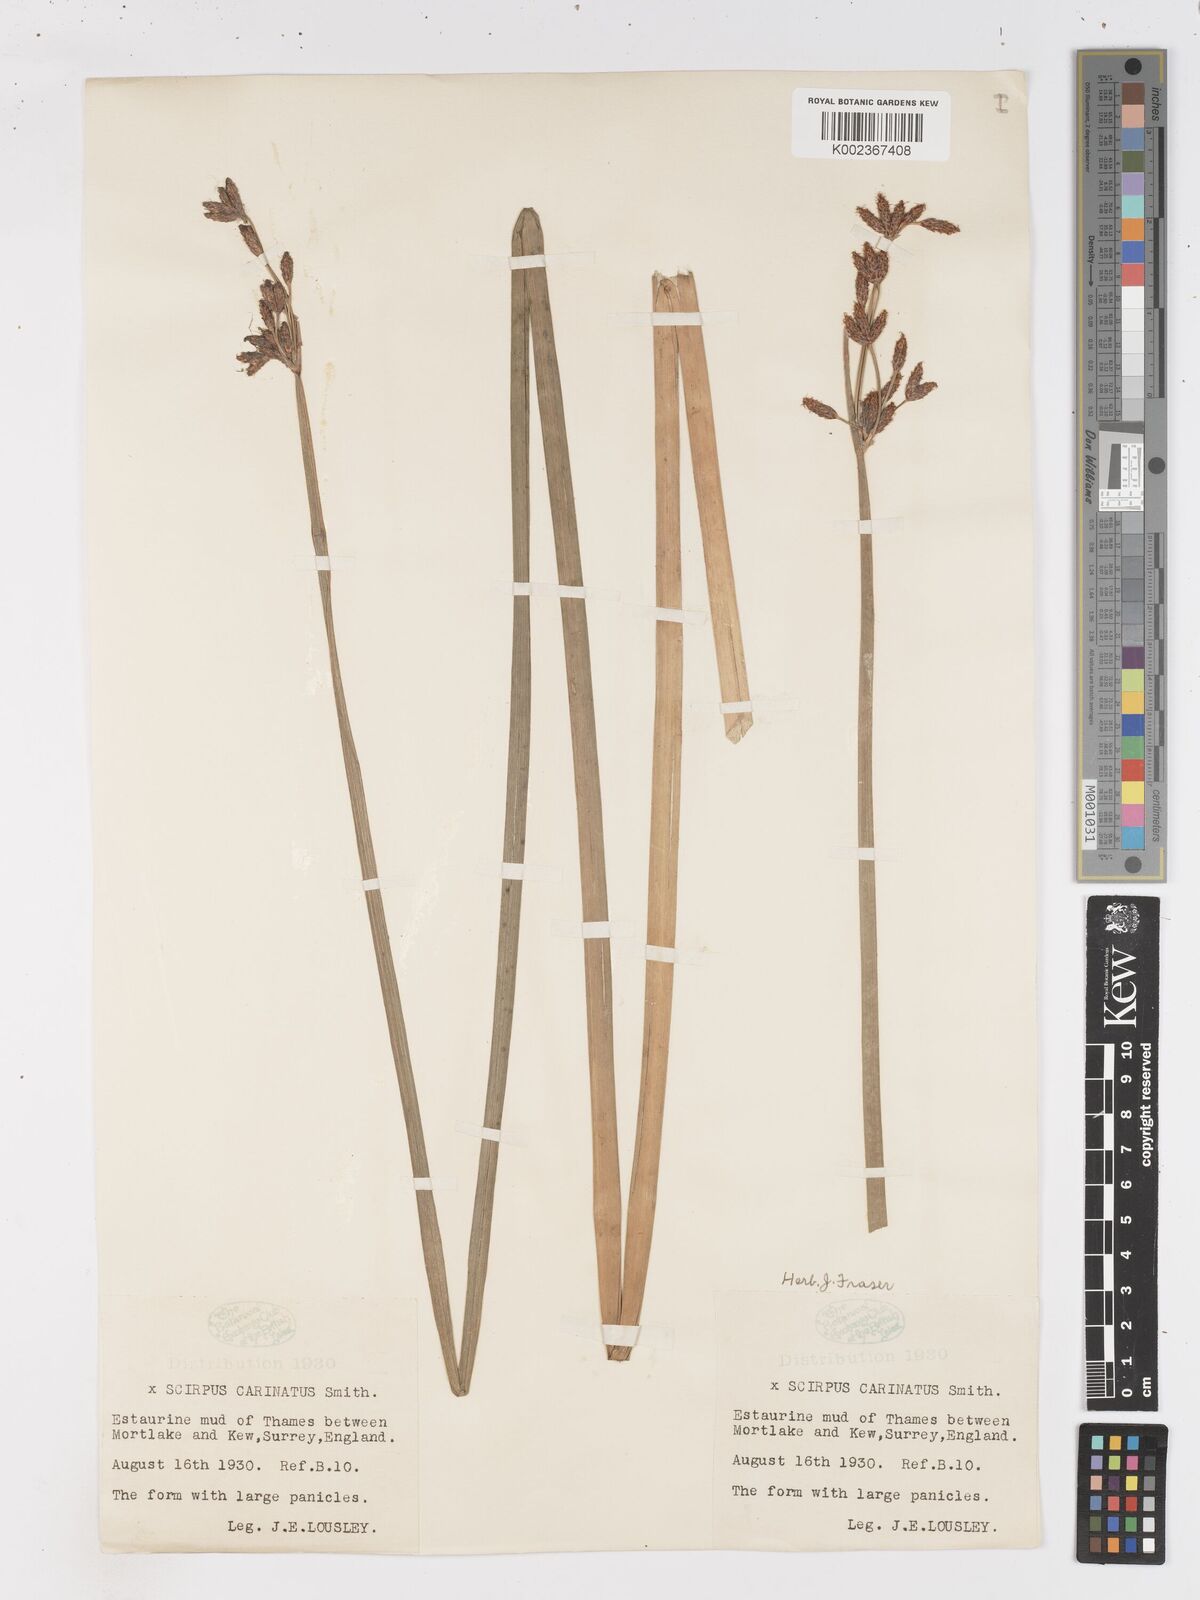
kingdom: Plantae
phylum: Tracheophyta
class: Liliopsida
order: Poales
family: Cyperaceae
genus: Isolepis
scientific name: Isolepis carinata
